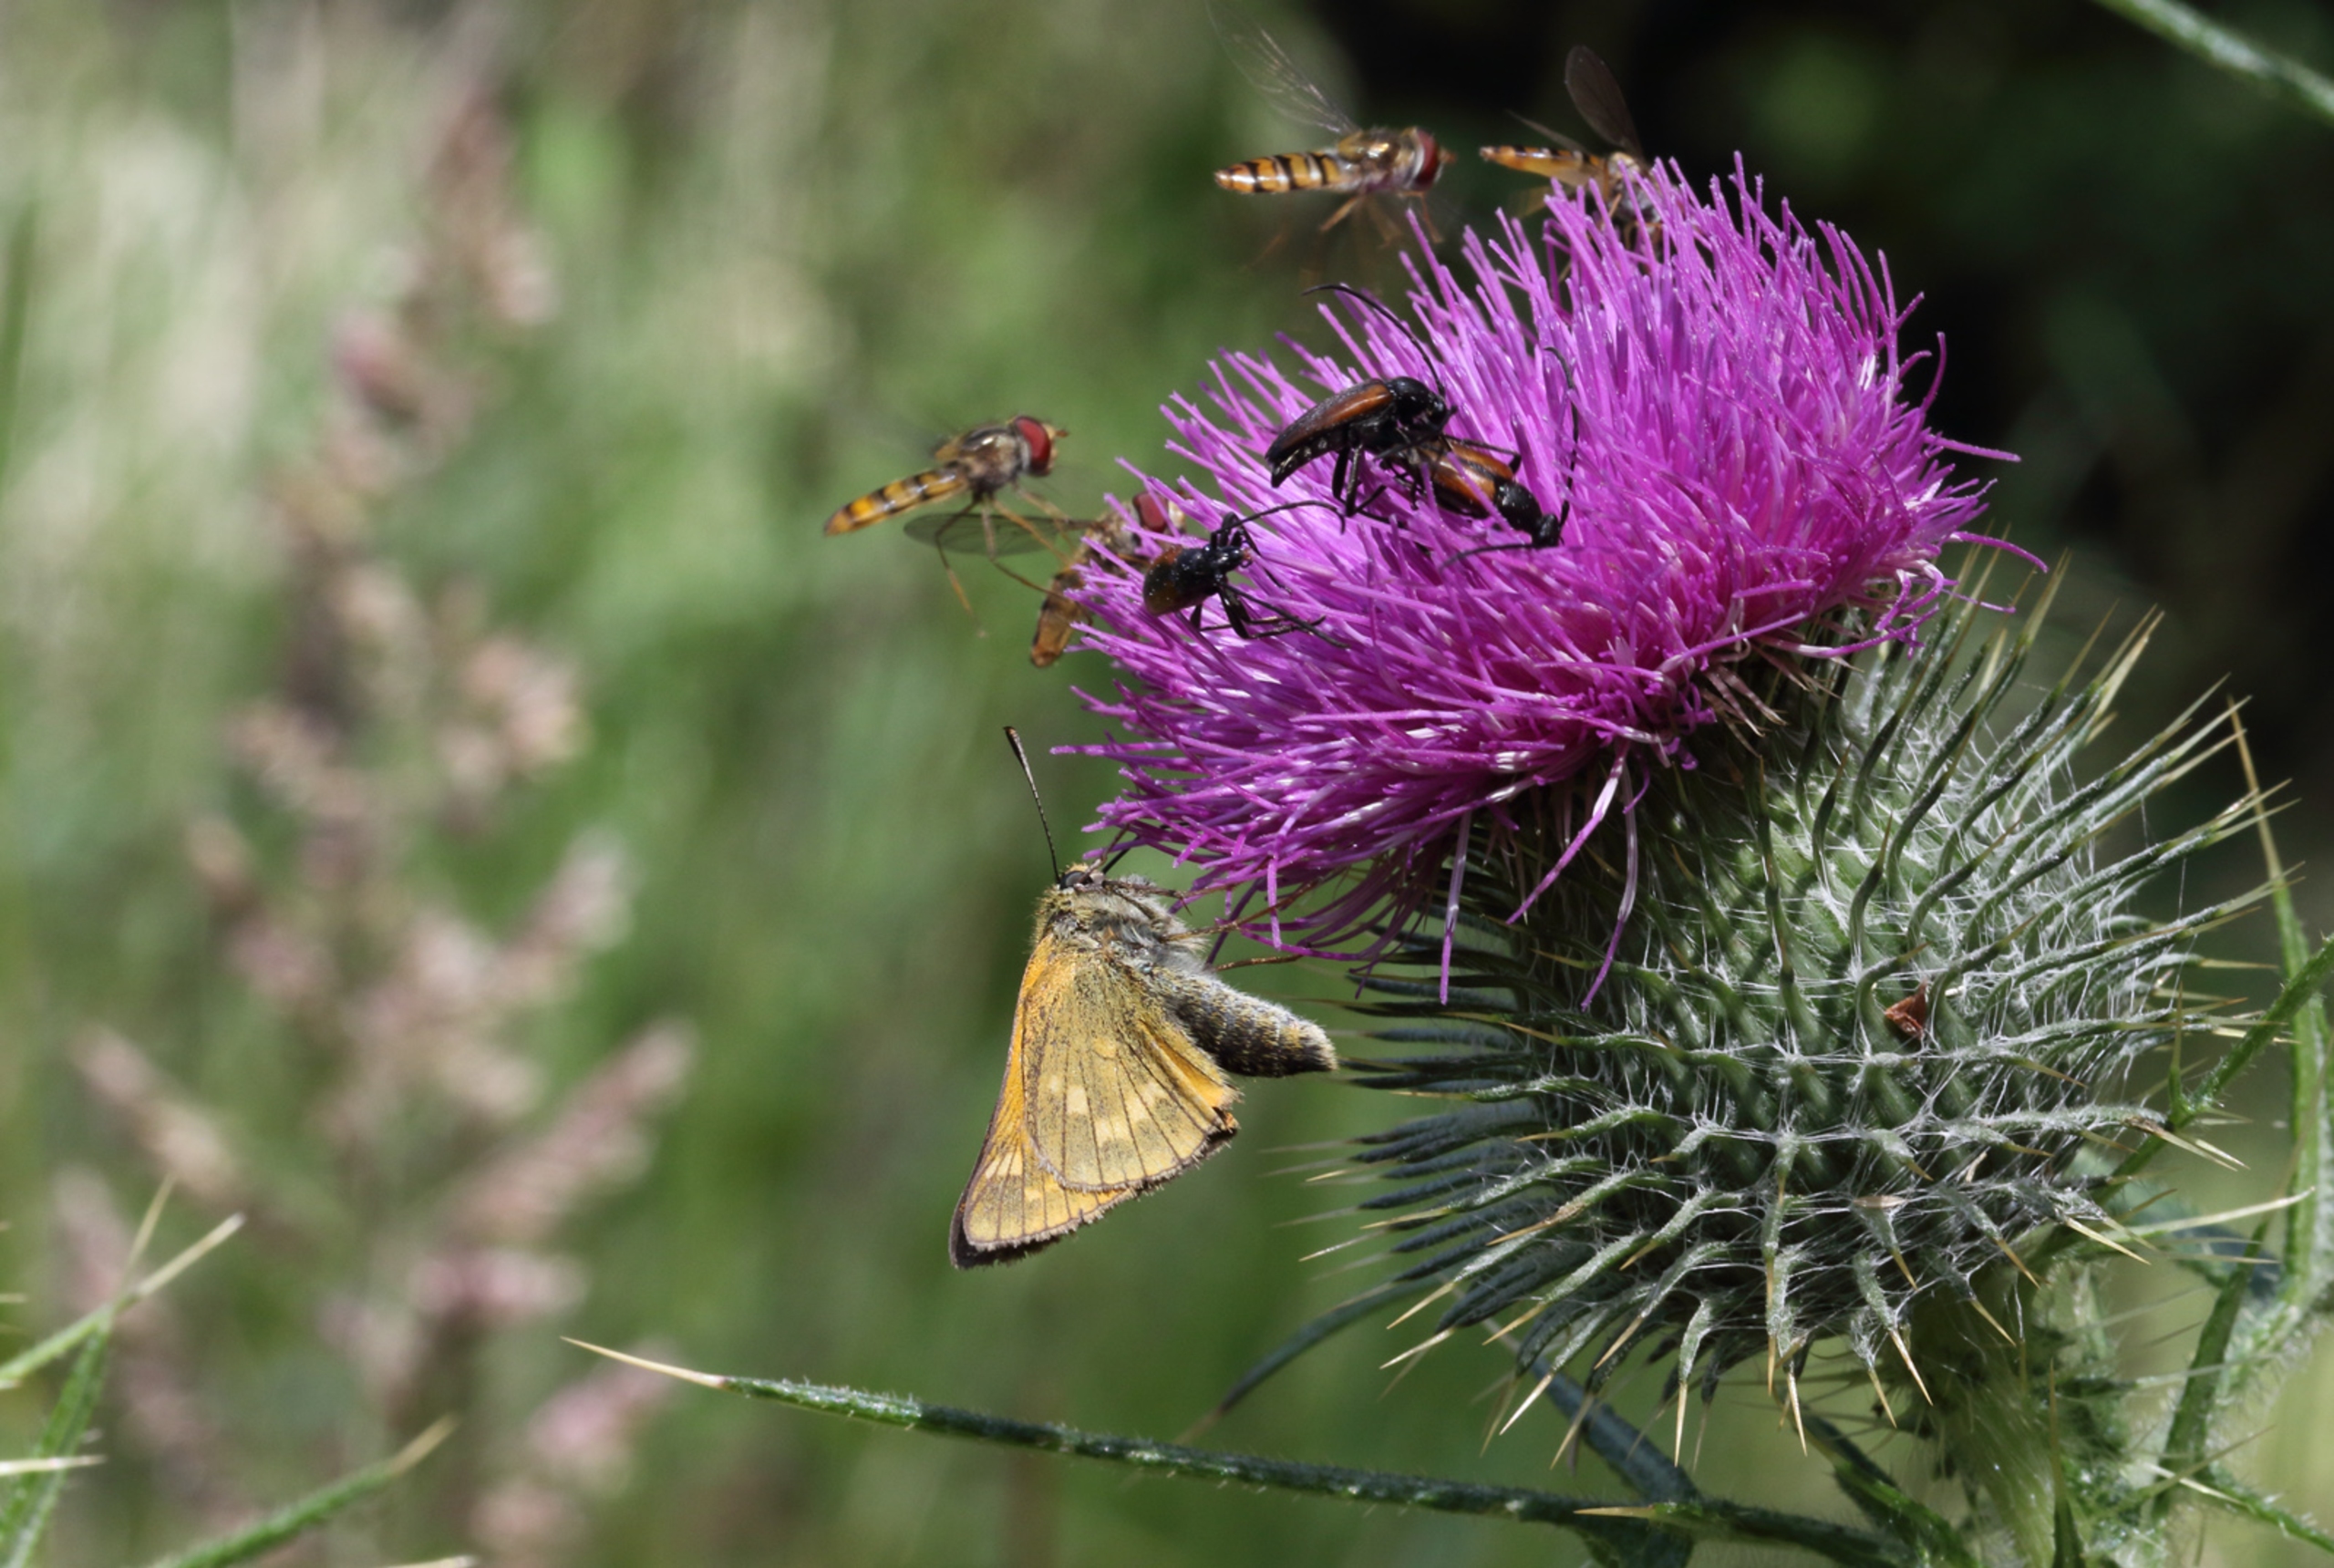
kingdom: Animalia
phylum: Arthropoda
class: Insecta
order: Lepidoptera
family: Hesperiidae
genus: Ochlodes
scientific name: Ochlodes venata
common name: Stor bredpande
